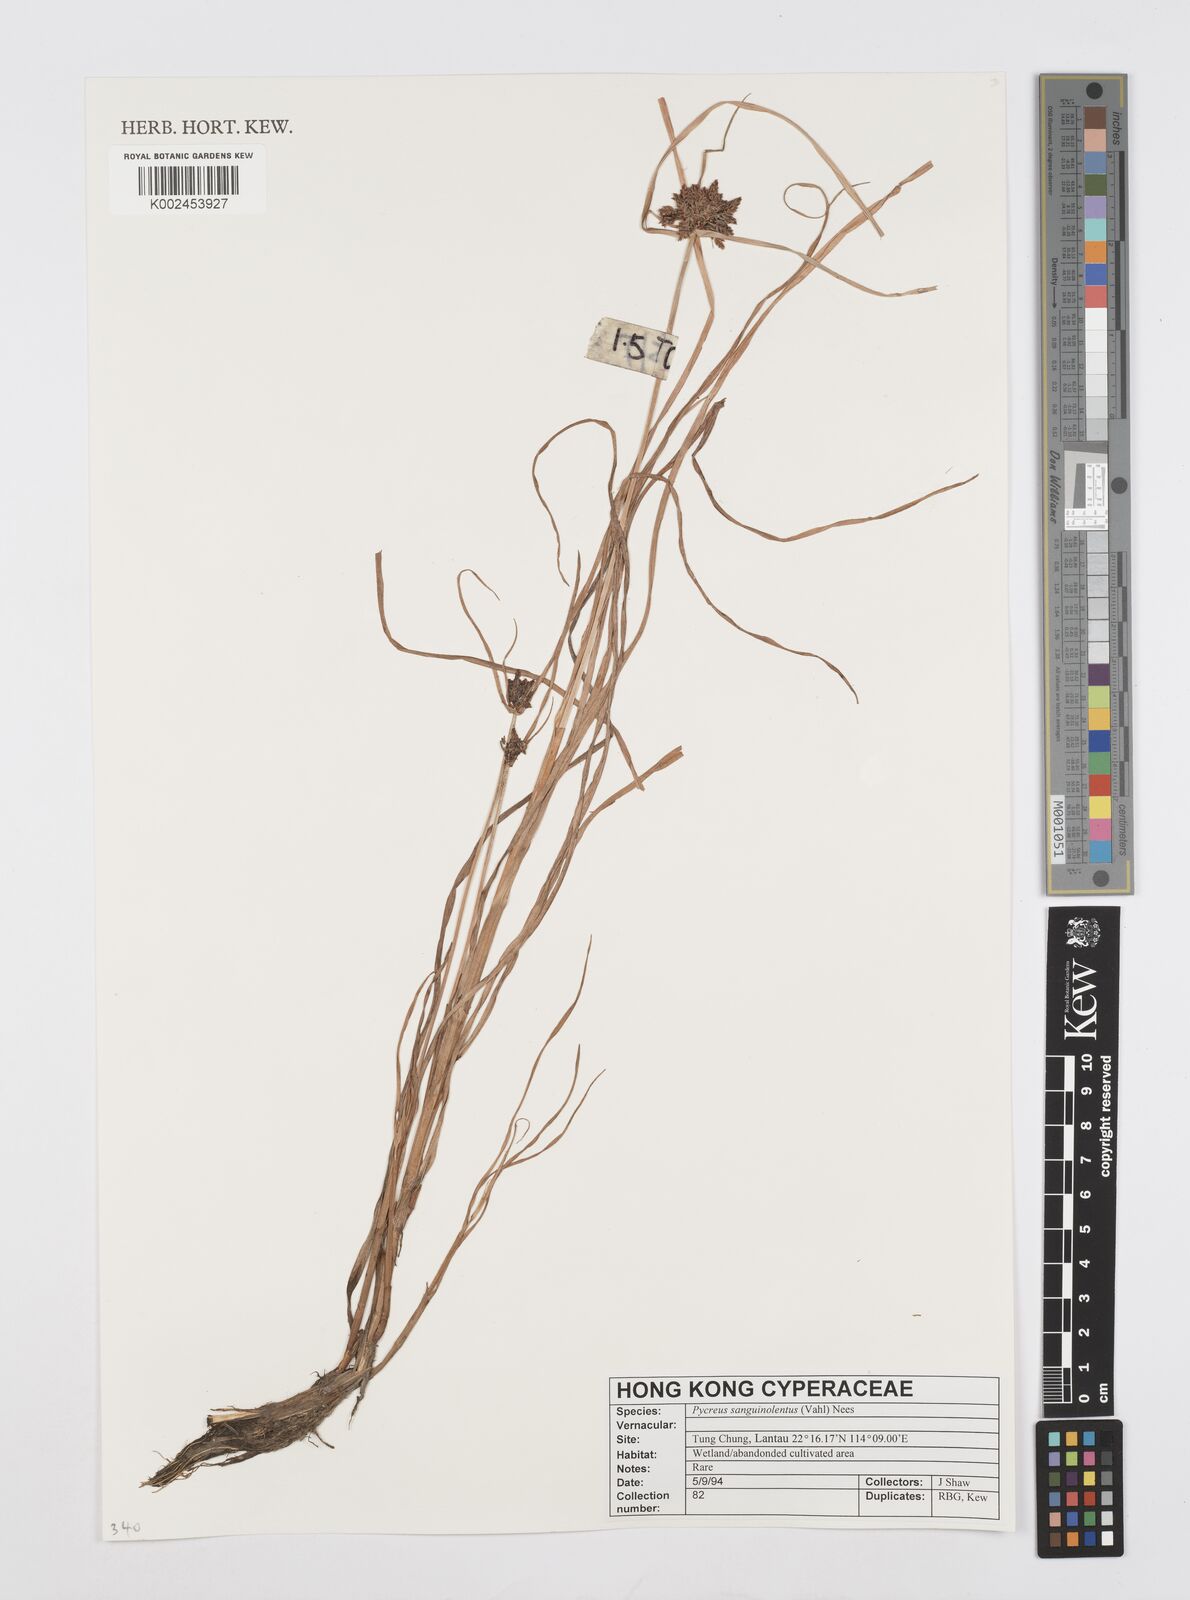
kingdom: Plantae
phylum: Tracheophyta
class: Liliopsida
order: Poales
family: Cyperaceae
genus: Cyperus
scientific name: Cyperus sanguinolentus
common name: Purpleglume flatsedge
